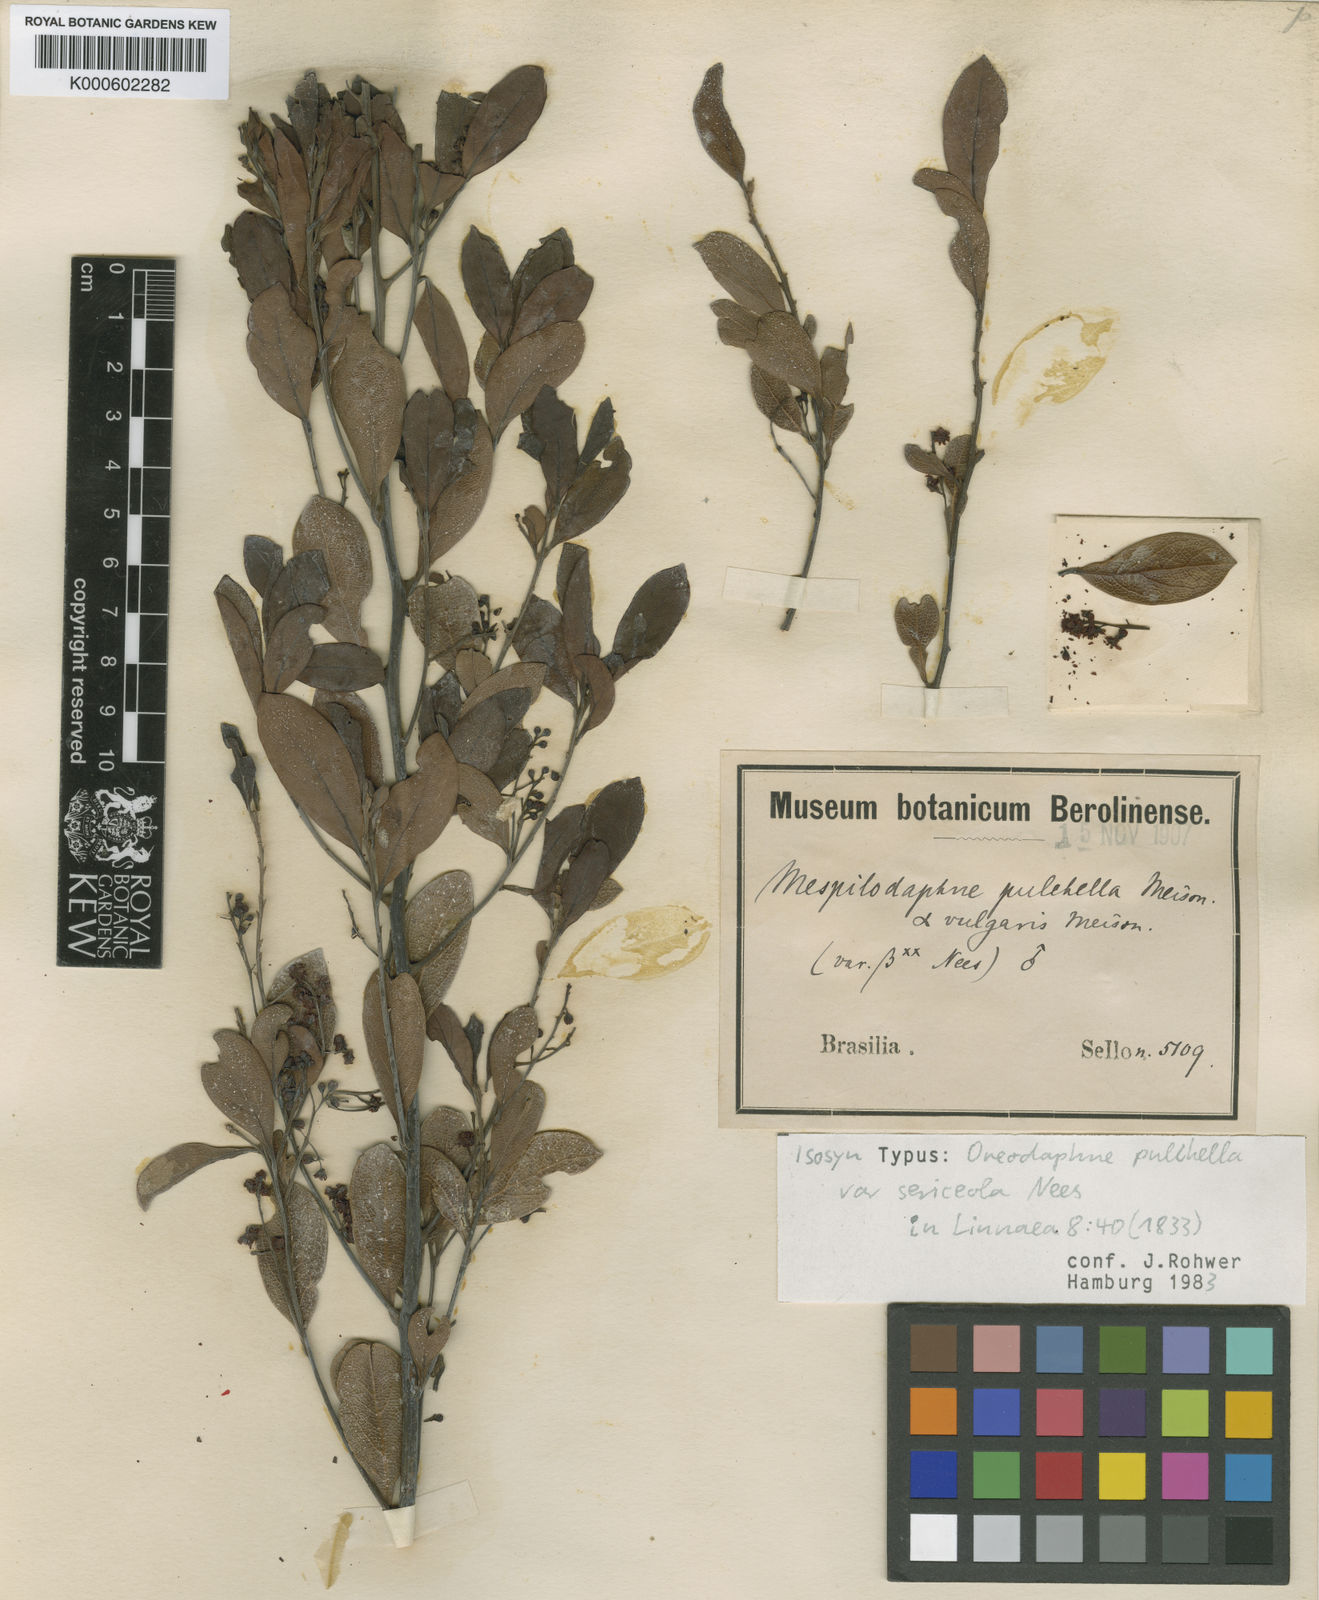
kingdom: Plantae
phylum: Tracheophyta
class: Magnoliopsida
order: Laurales
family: Lauraceae
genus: Mespilodaphne
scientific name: Mespilodaphne pulchella
